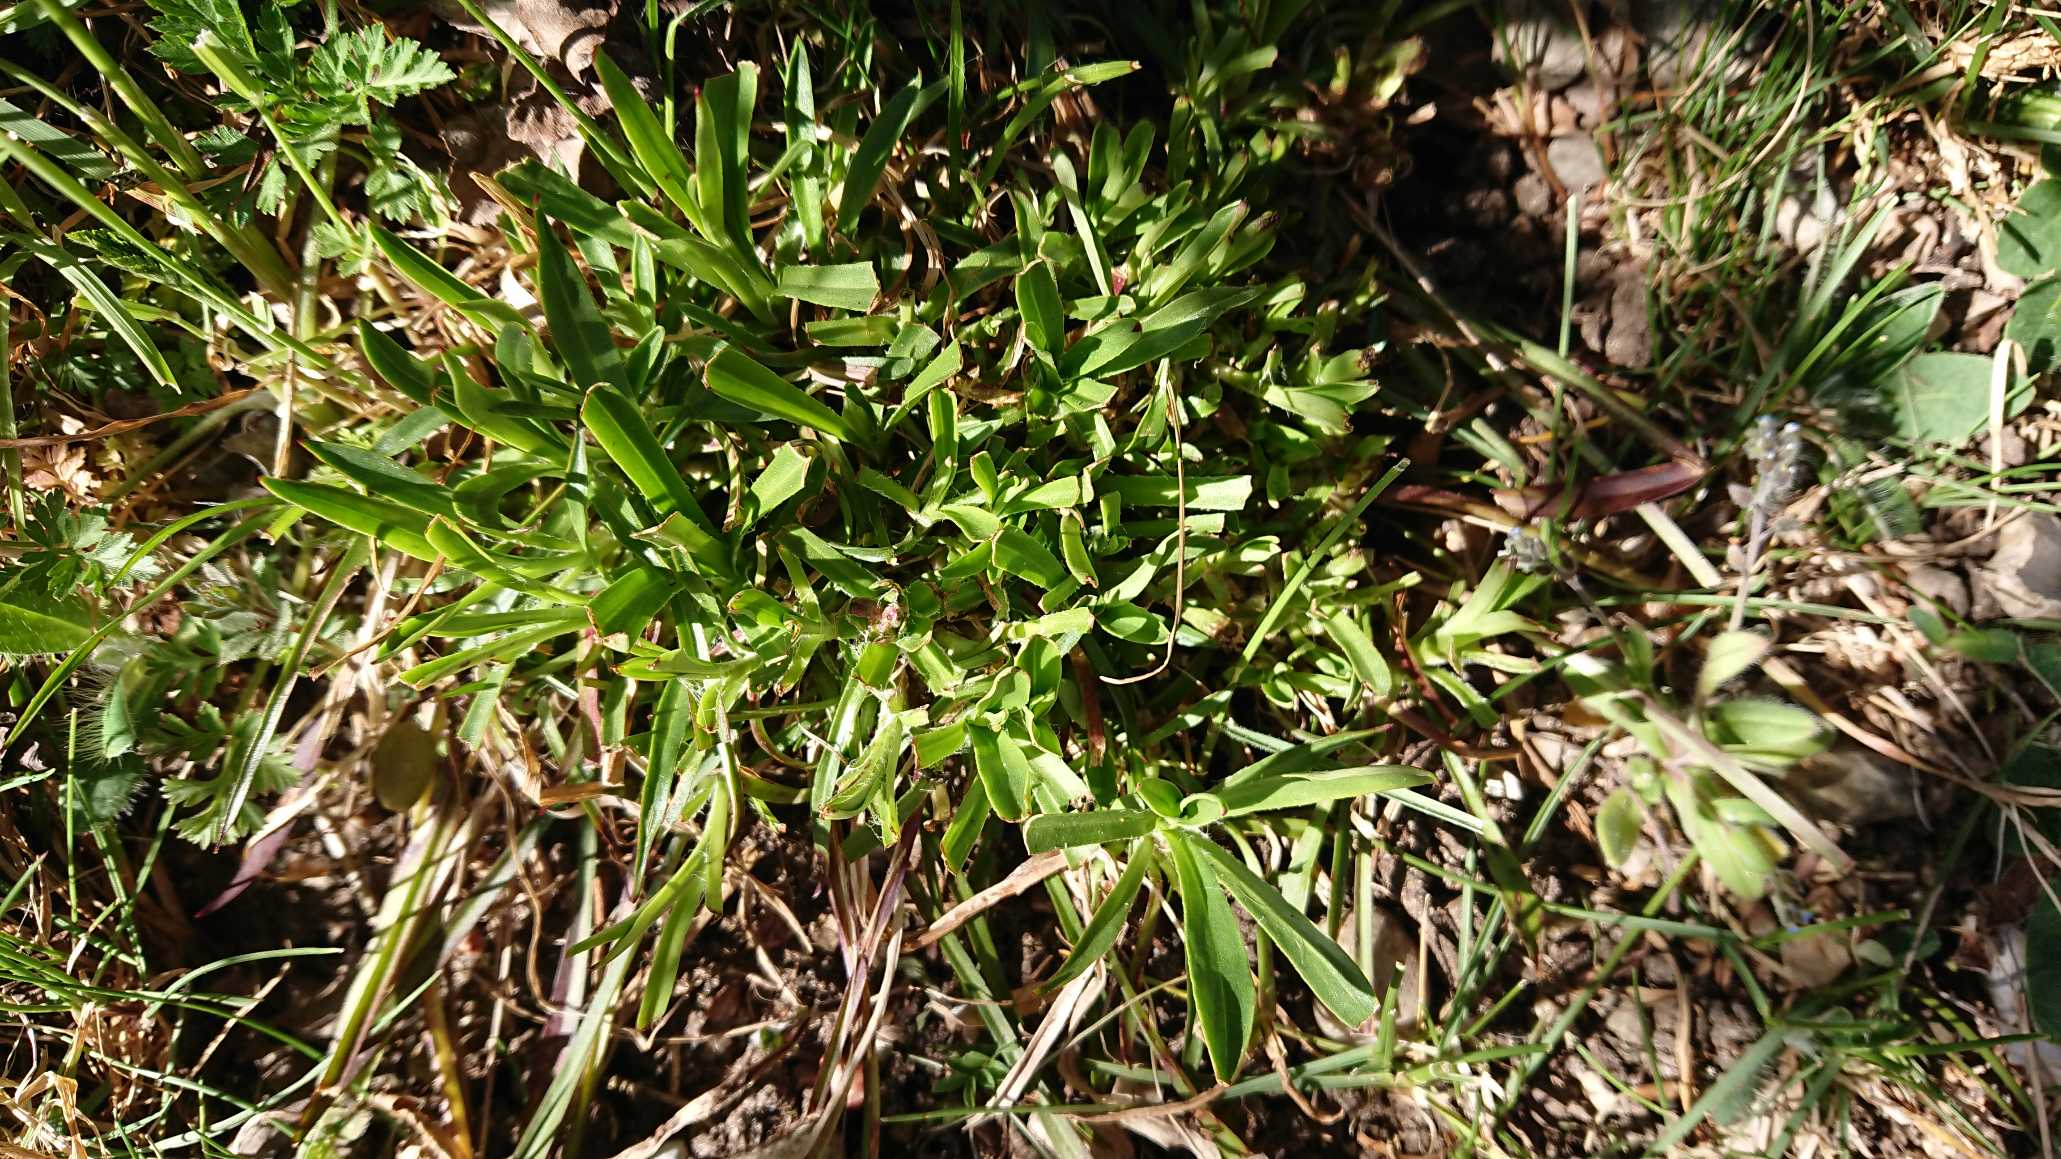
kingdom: Plantae
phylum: Tracheophyta
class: Magnoliopsida
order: Caryophyllales
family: Caryophyllaceae
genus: Viscaria
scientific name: Viscaria vulgaris
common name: Tjærenellike
